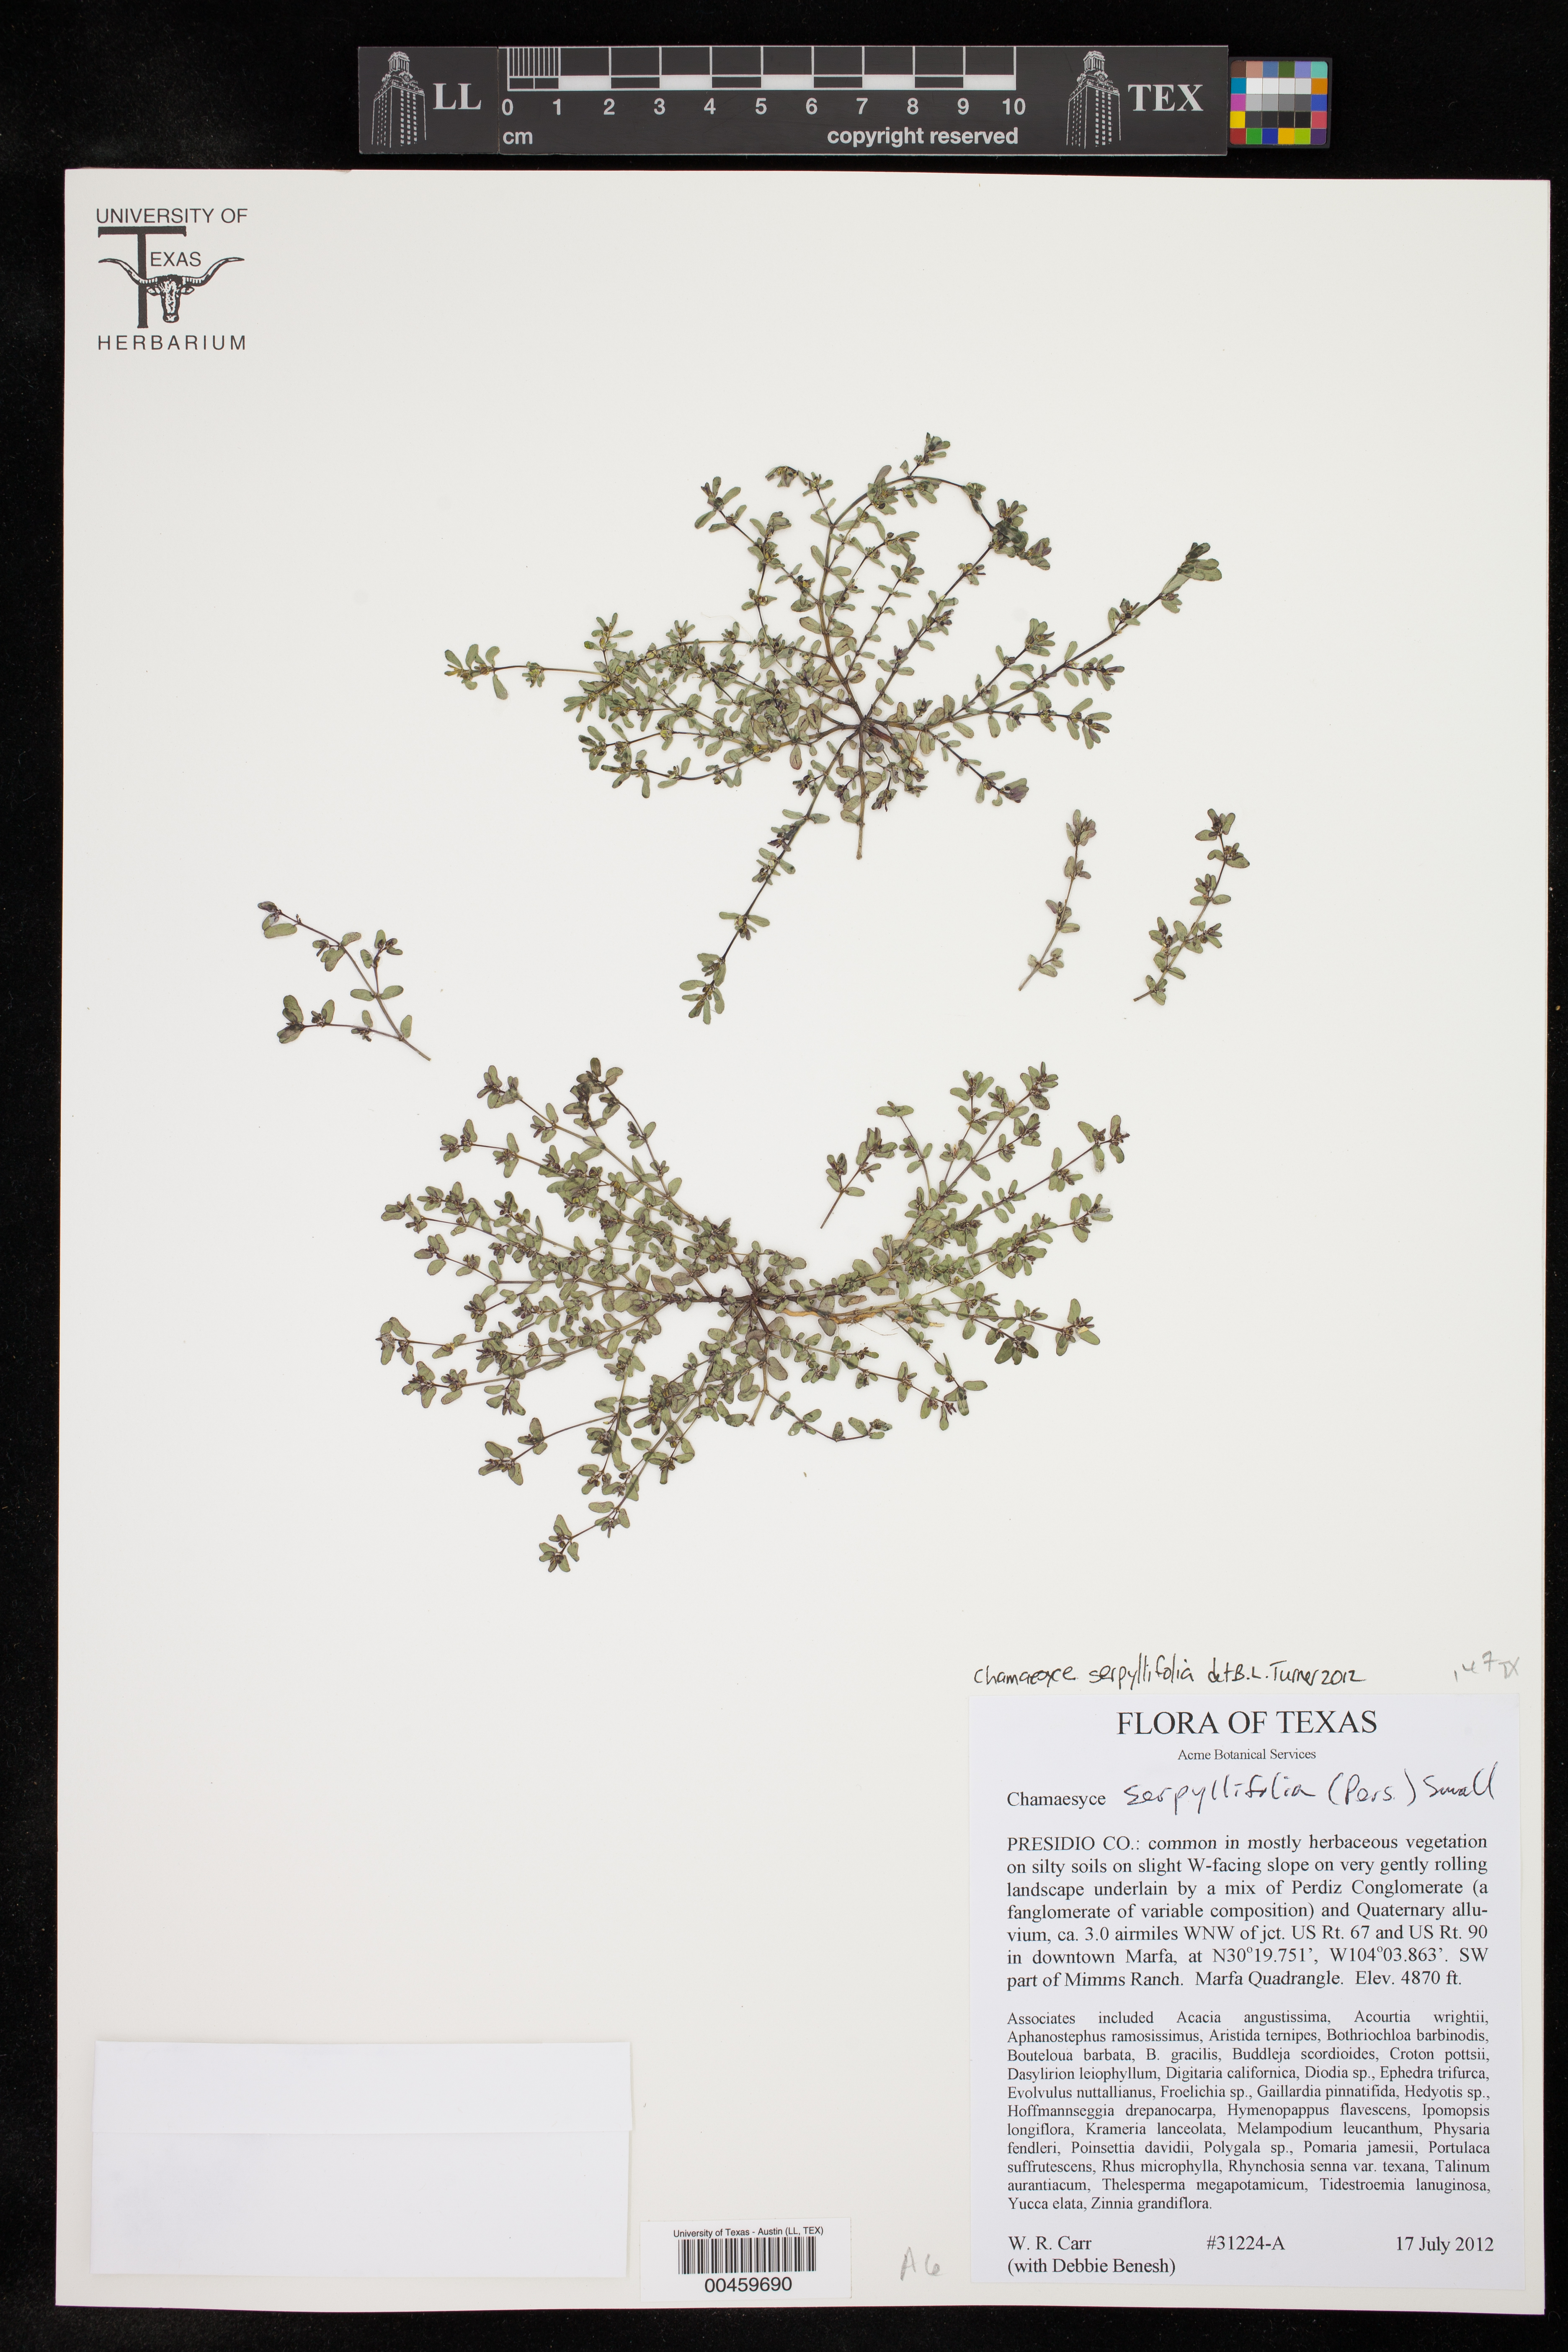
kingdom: Plantae
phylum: Tracheophyta
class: Magnoliopsida
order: Malpighiales
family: Euphorbiaceae
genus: Euphorbia
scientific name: Euphorbia serpillifolia
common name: Thyme-leaf spurge
